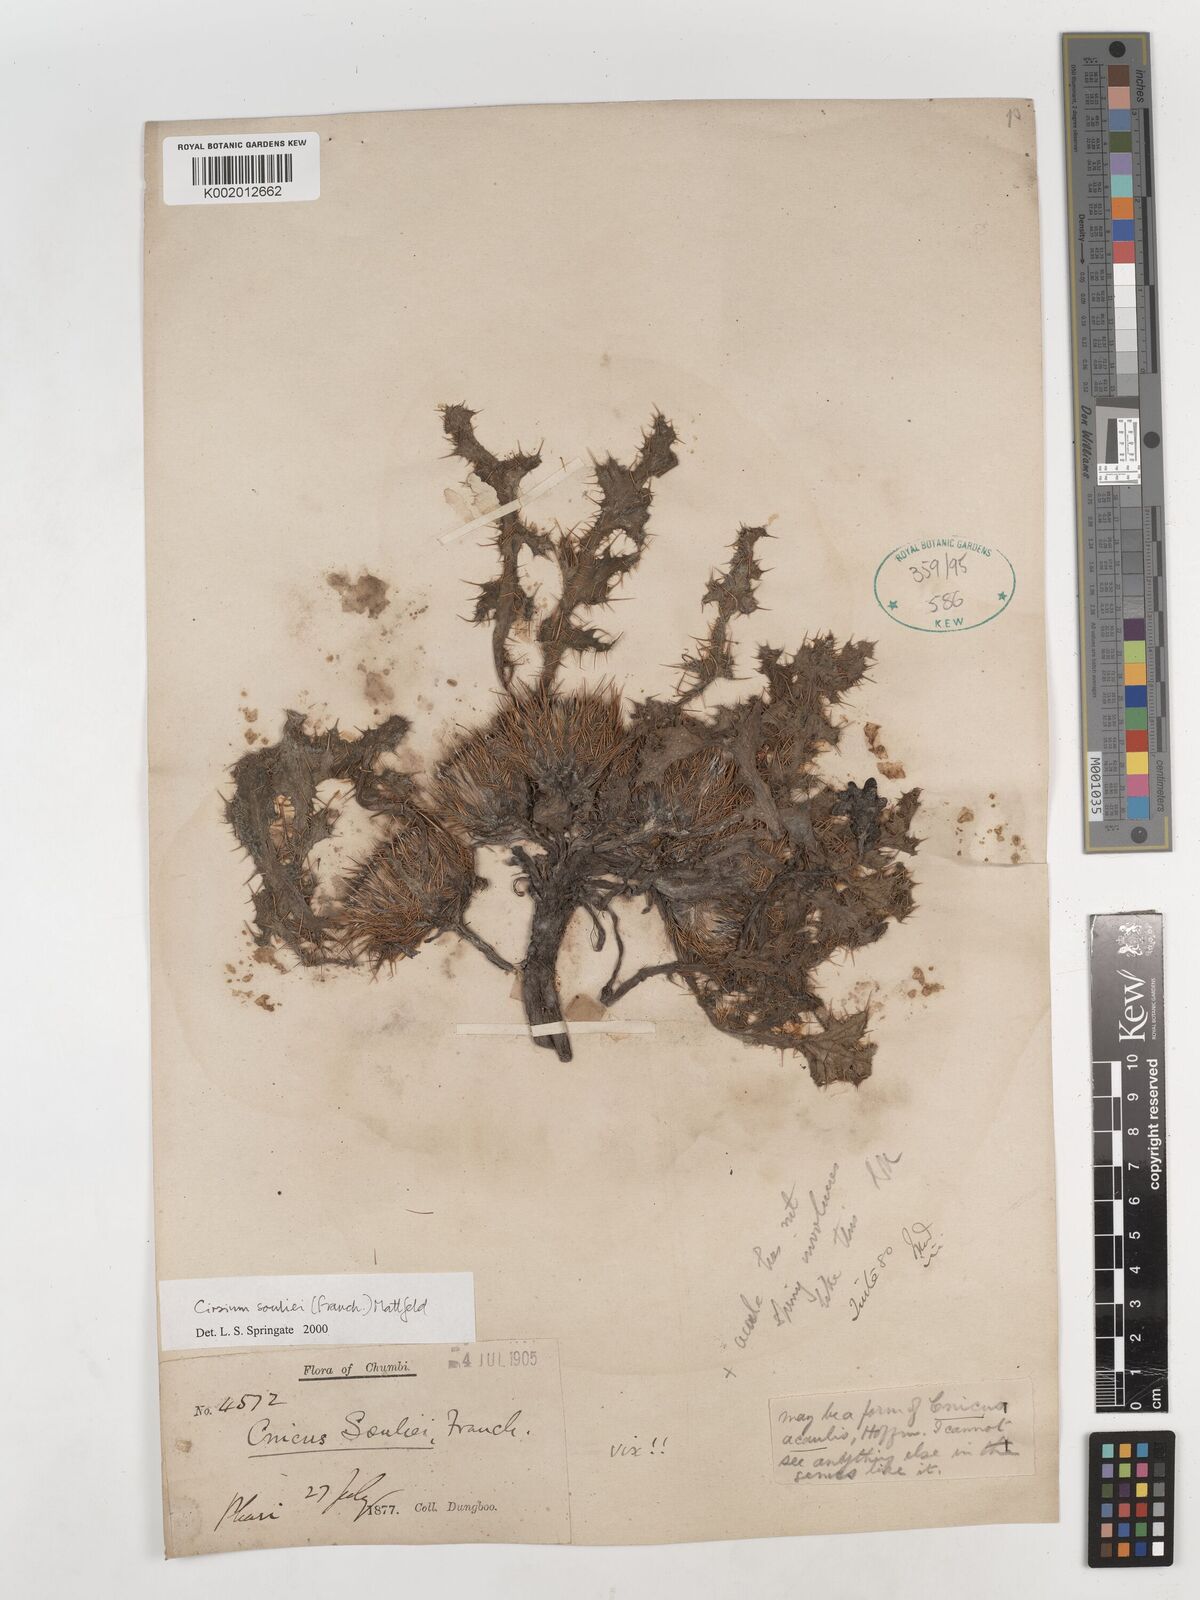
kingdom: Plantae
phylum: Tracheophyta
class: Magnoliopsida
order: Asterales
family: Asteraceae
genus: Cirsium
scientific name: Cirsium souliei
